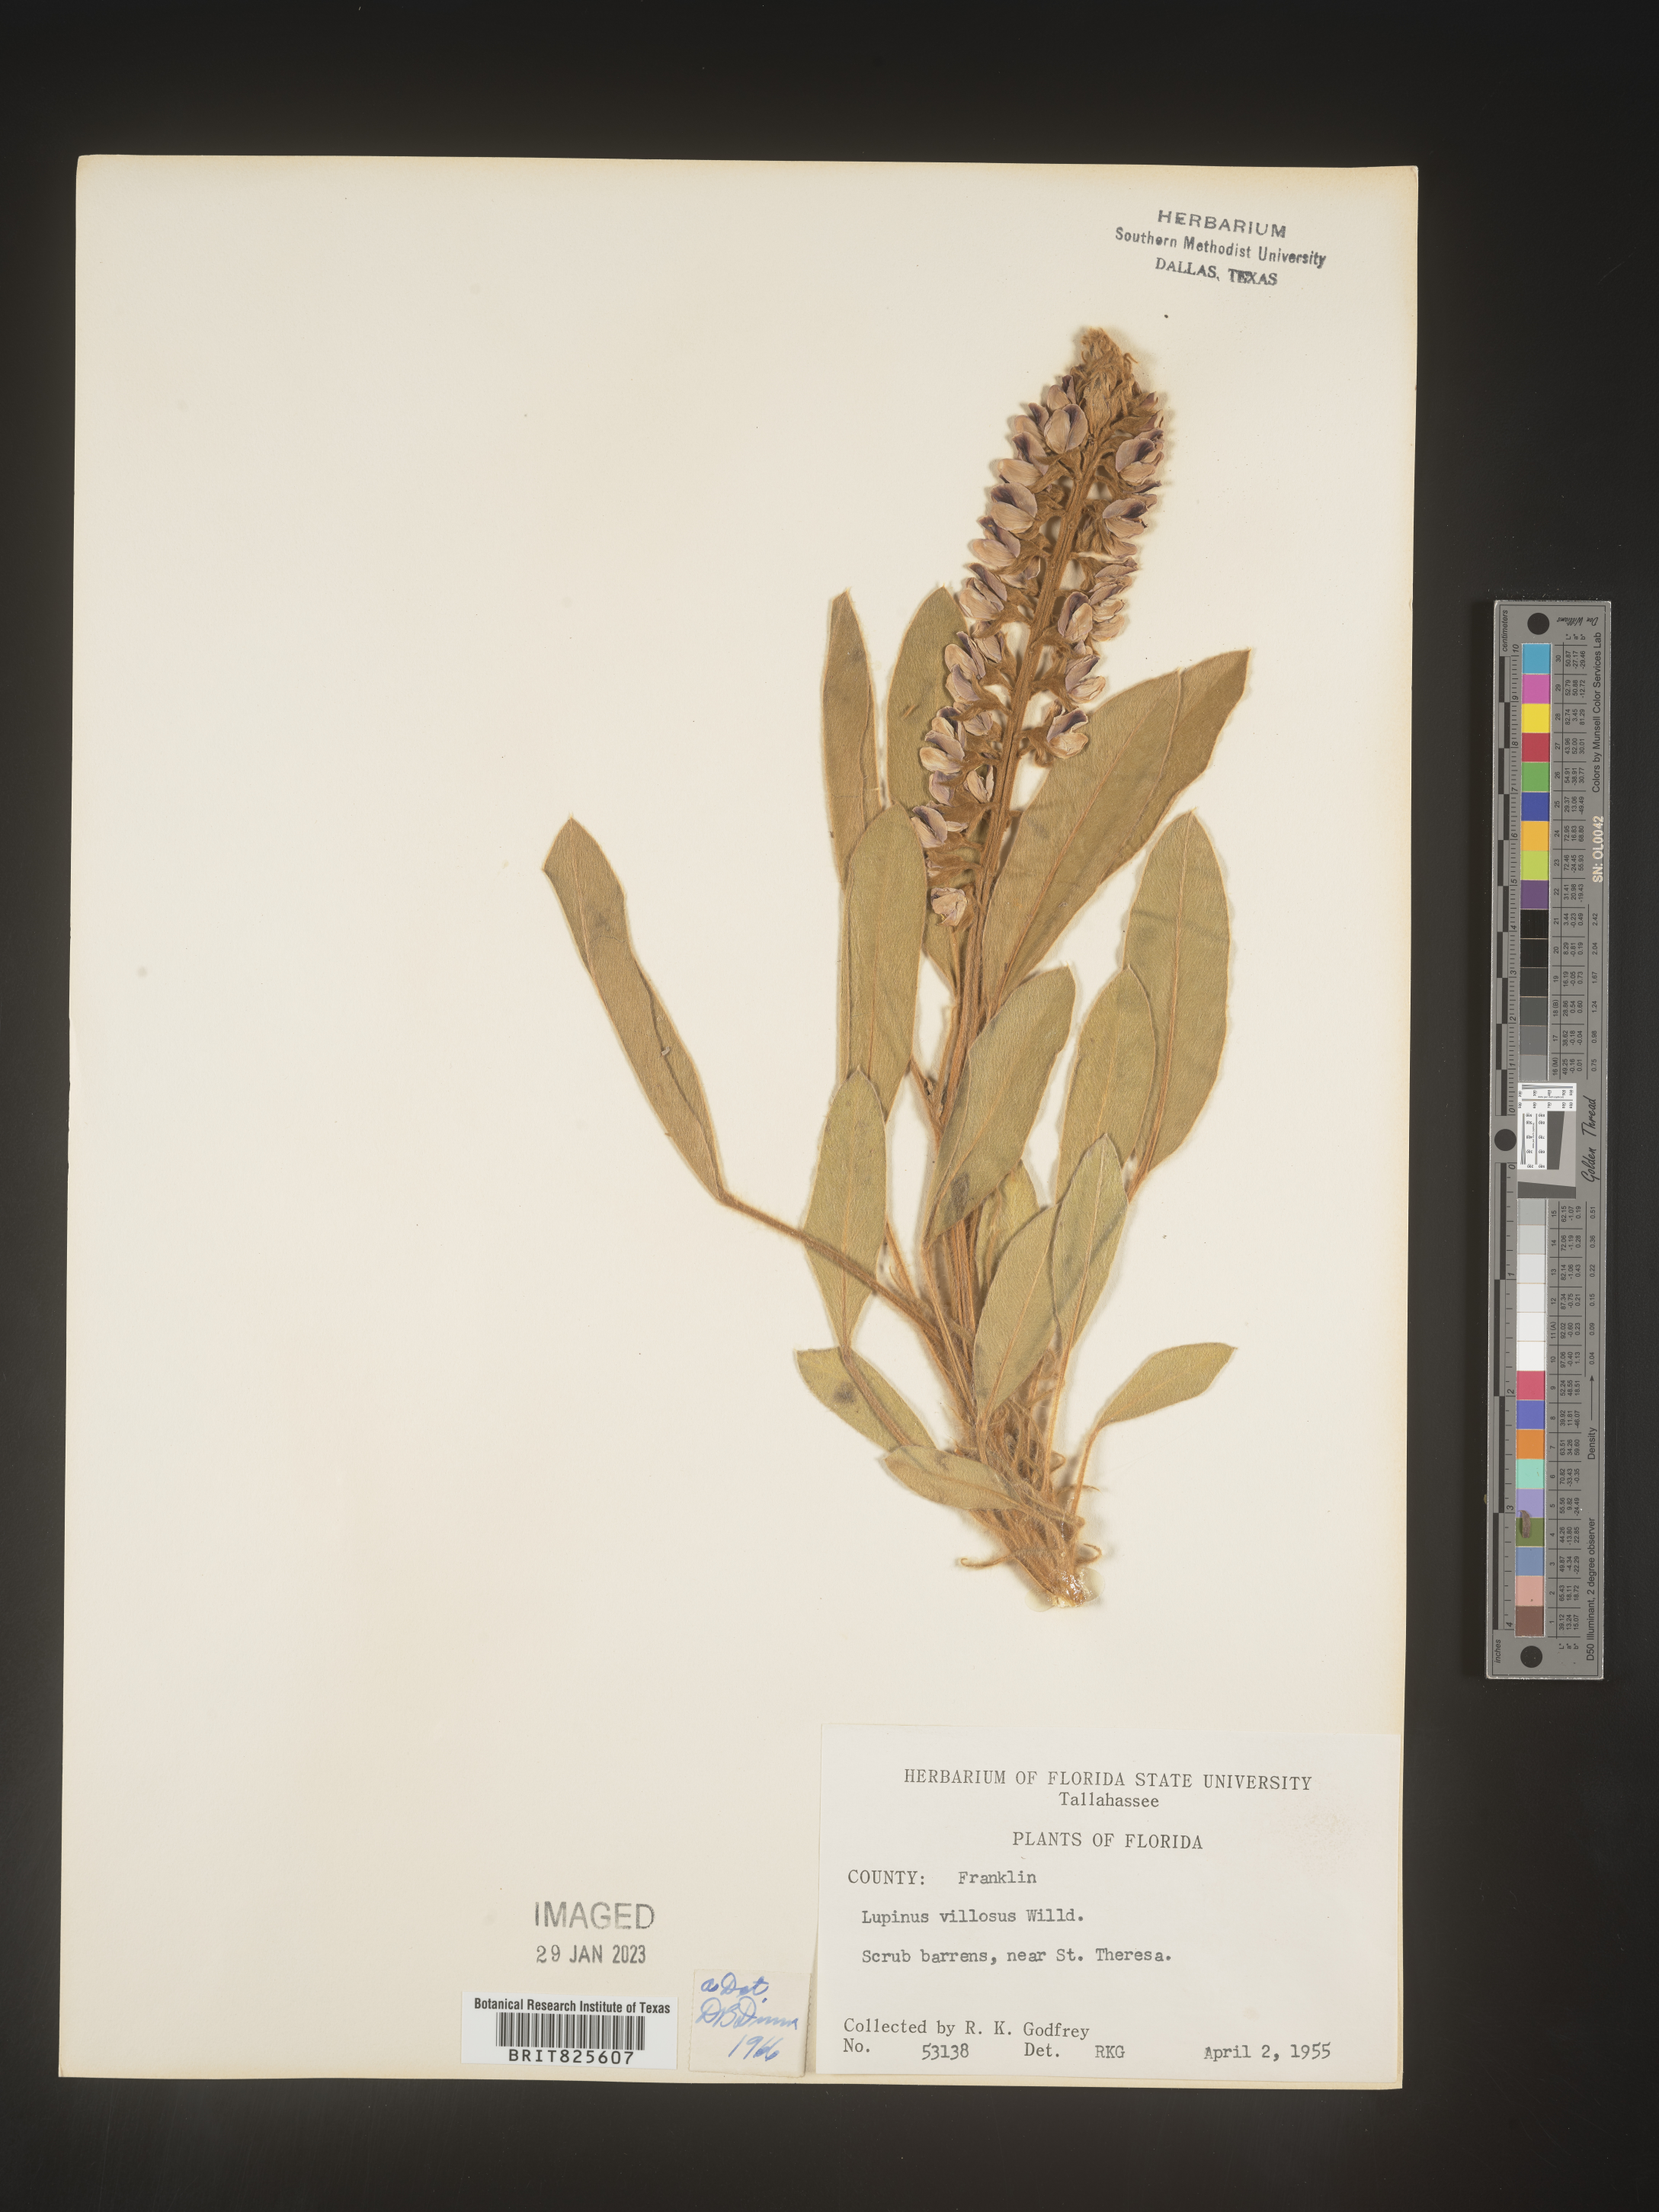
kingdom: Plantae
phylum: Tracheophyta
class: Magnoliopsida
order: Fabales
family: Fabaceae
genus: Lupinus
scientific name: Lupinus villosus
